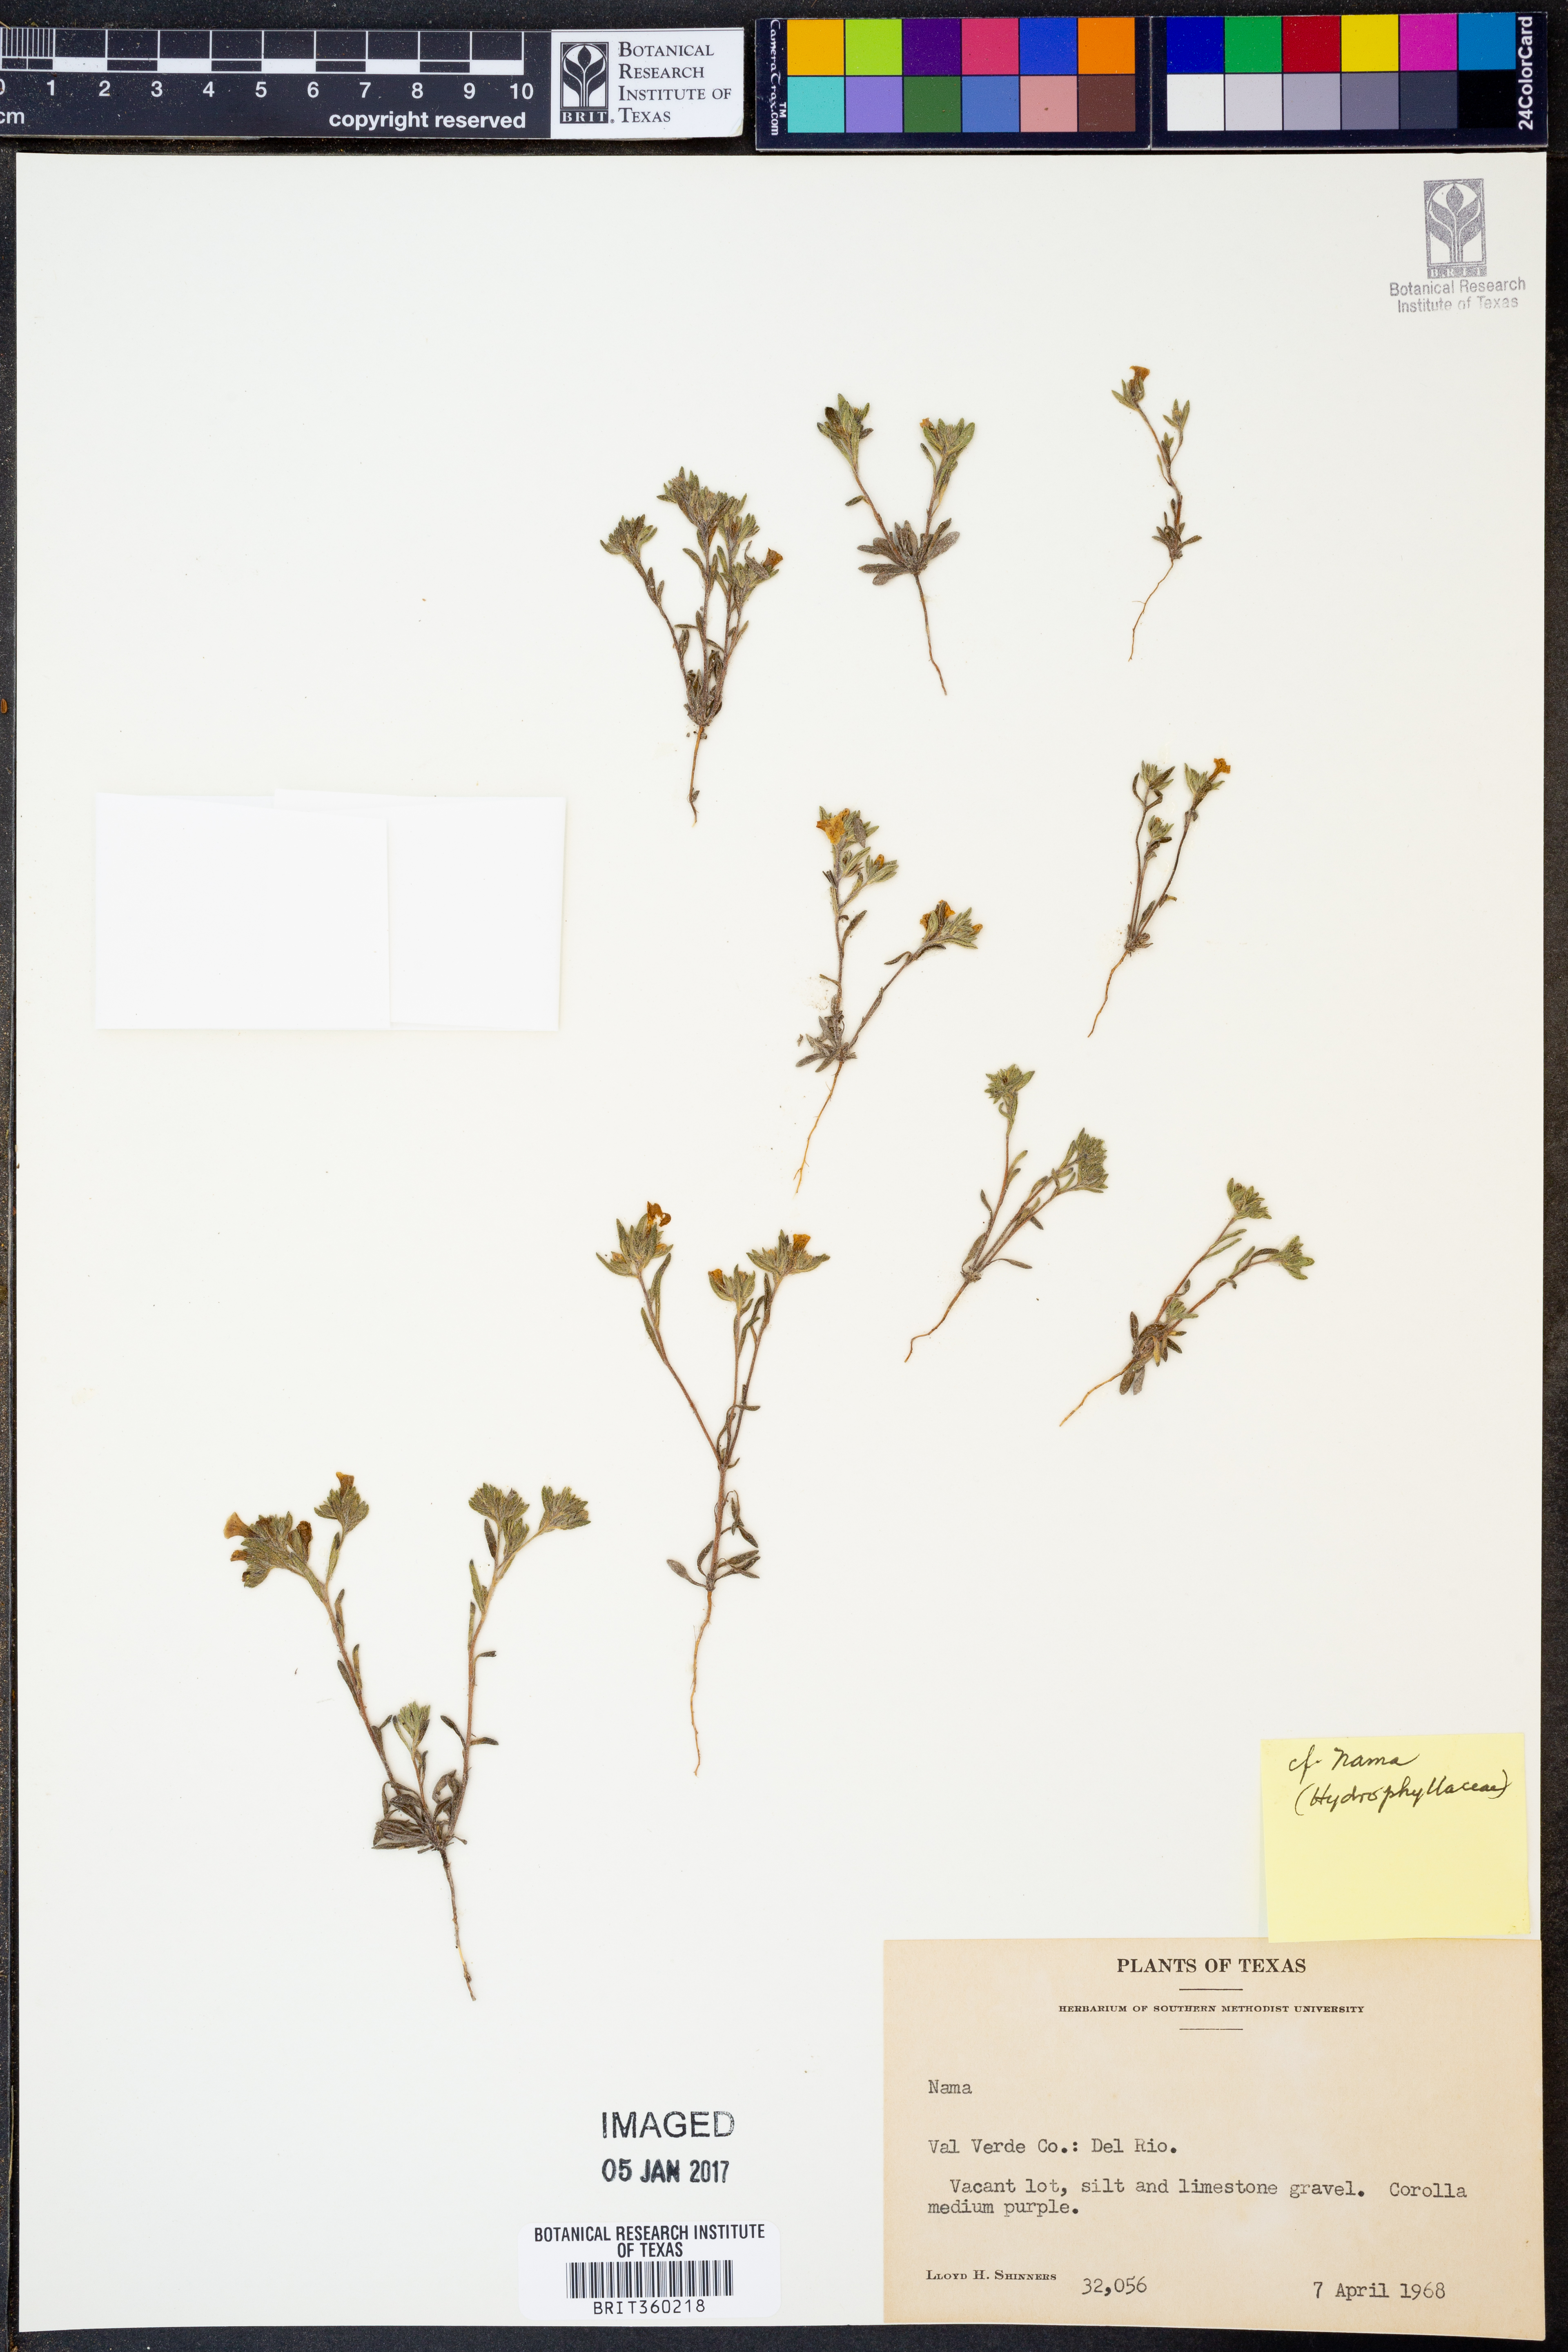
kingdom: Plantae
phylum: Tracheophyta
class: Magnoliopsida
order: Boraginales
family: Namaceae
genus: Nama
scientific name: Nama
